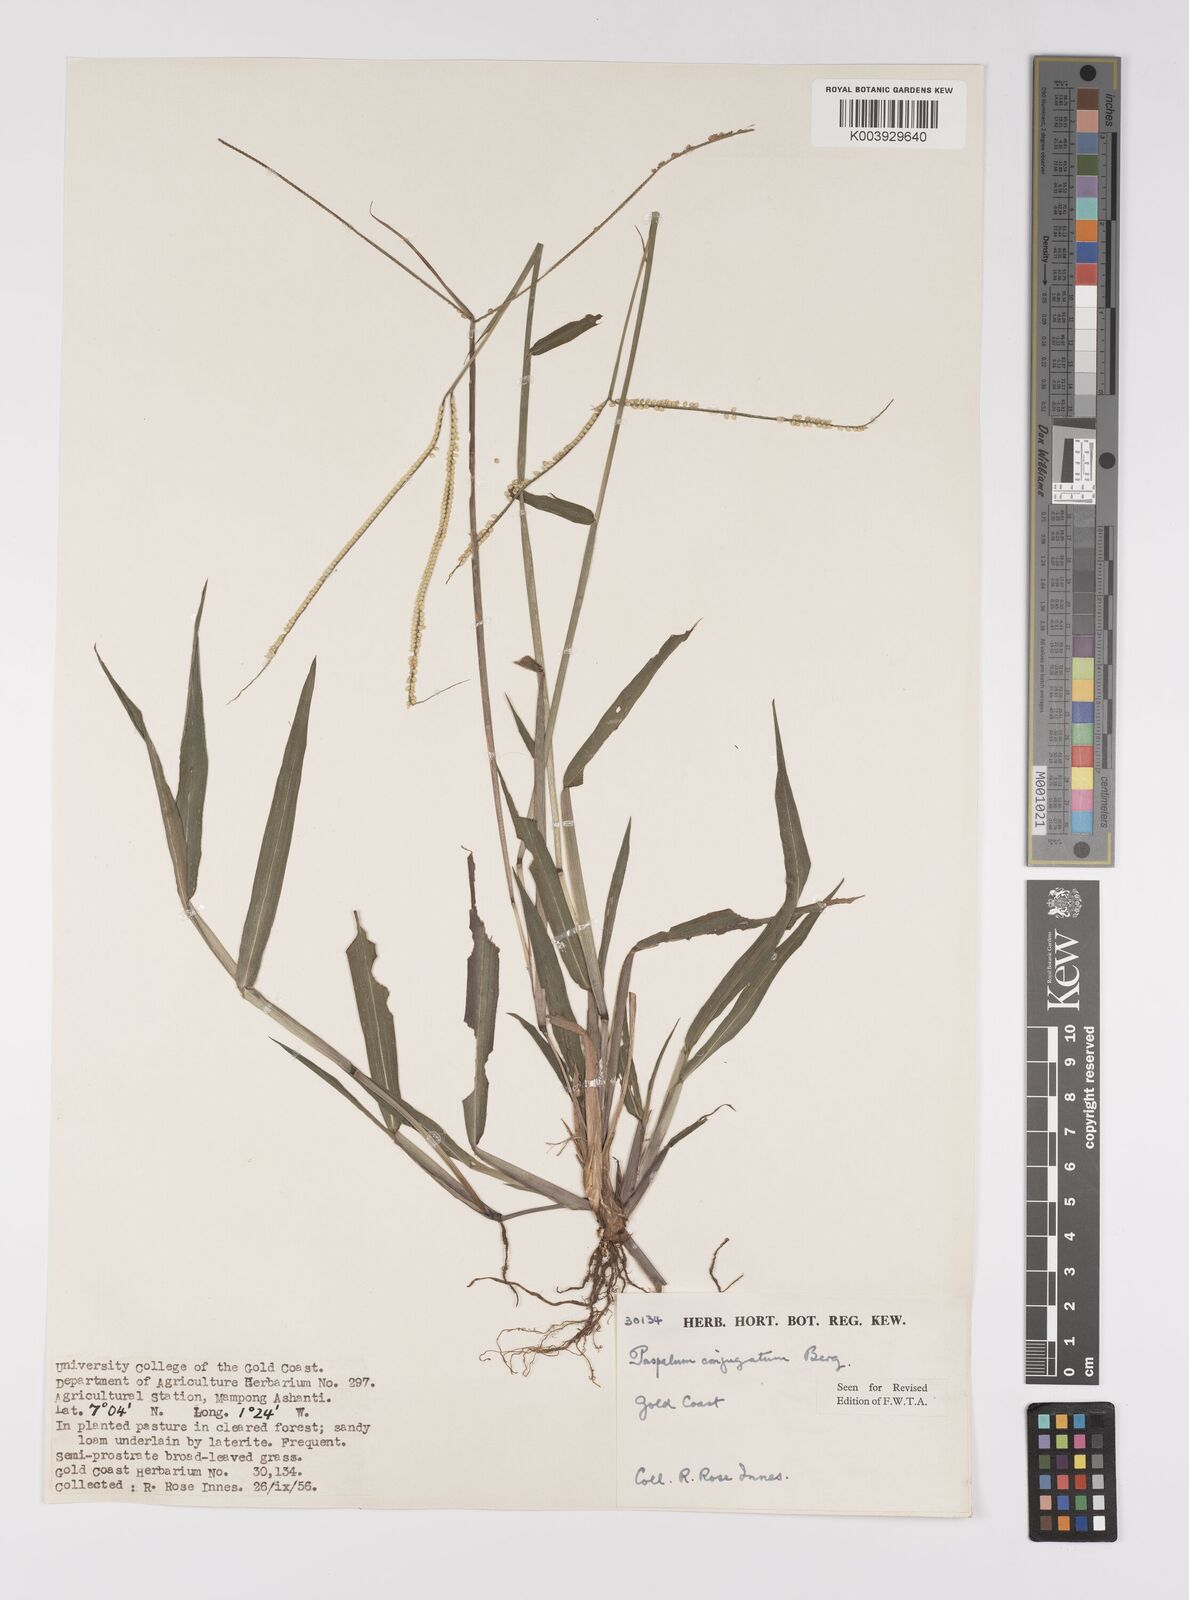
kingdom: Plantae
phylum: Tracheophyta
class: Liliopsida
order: Poales
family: Poaceae
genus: Paspalum
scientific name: Paspalum conjugatum
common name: Hilograss
